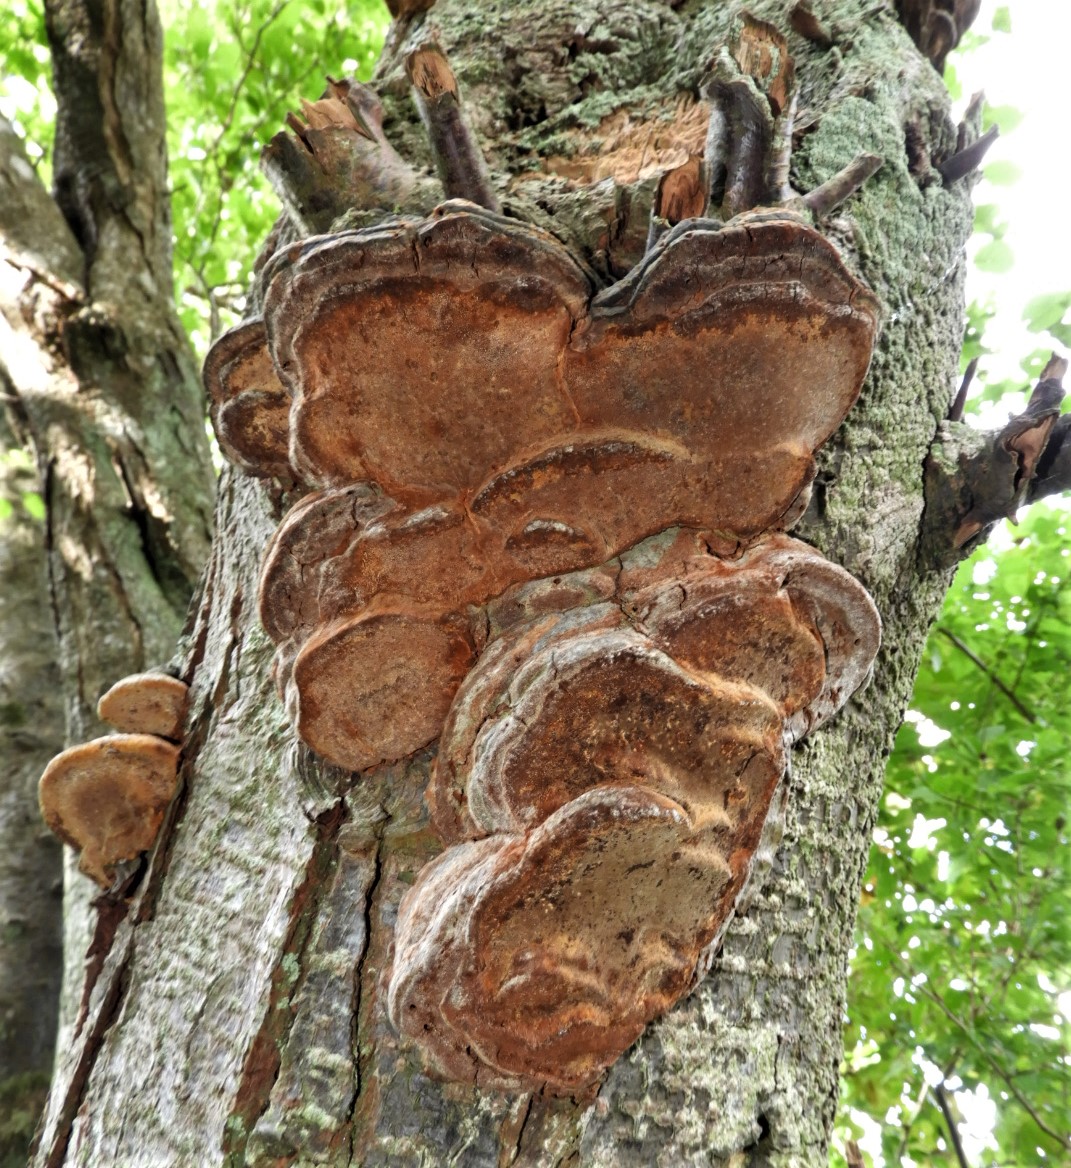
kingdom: Fungi
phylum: Basidiomycota
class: Agaricomycetes
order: Hymenochaetales
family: Hymenochaetaceae
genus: Phellinus
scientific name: Phellinus pomaceus
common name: blomme-ildporesvamp
